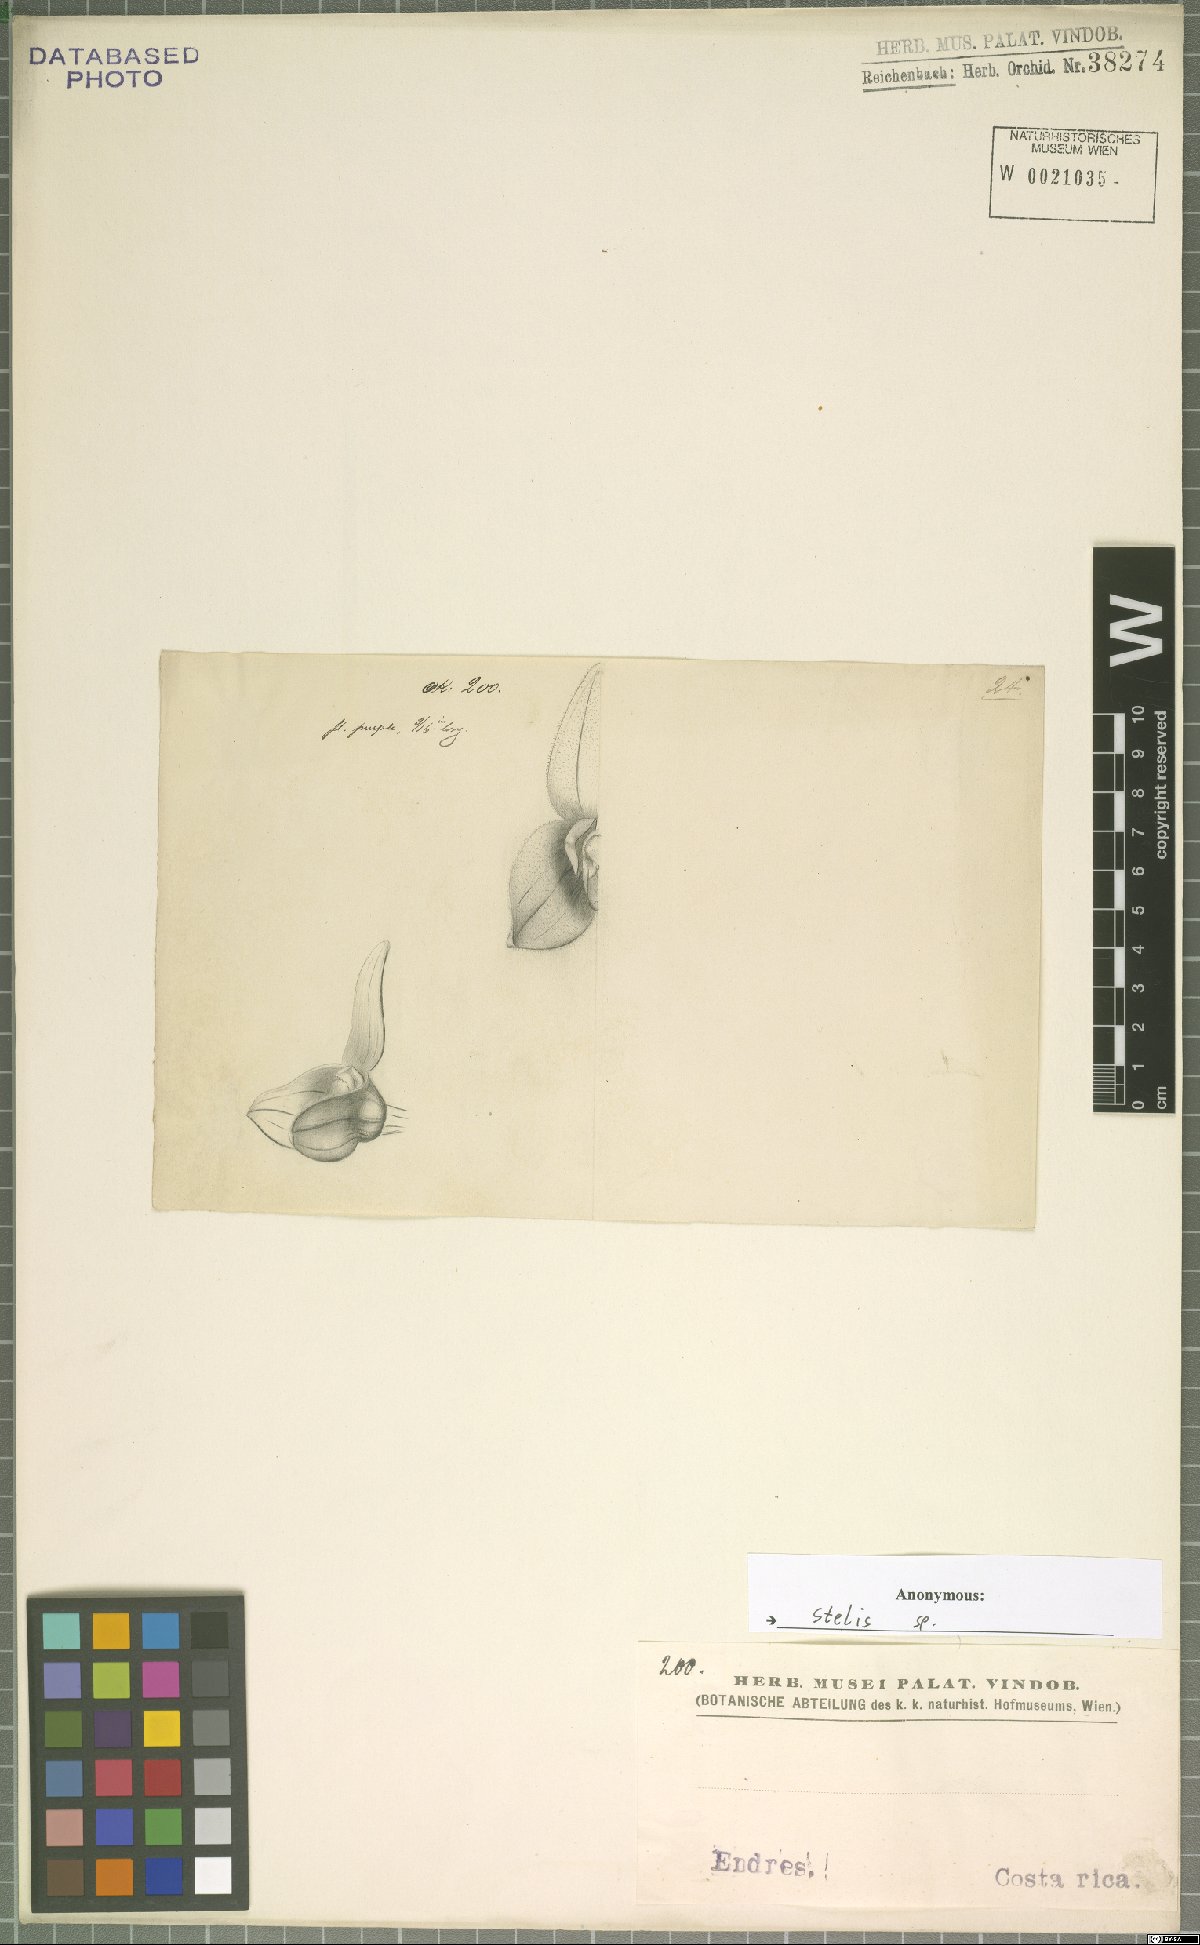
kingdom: Plantae
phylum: Tracheophyta
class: Liliopsida
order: Asparagales
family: Orchidaceae
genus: Stelis
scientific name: Stelis
